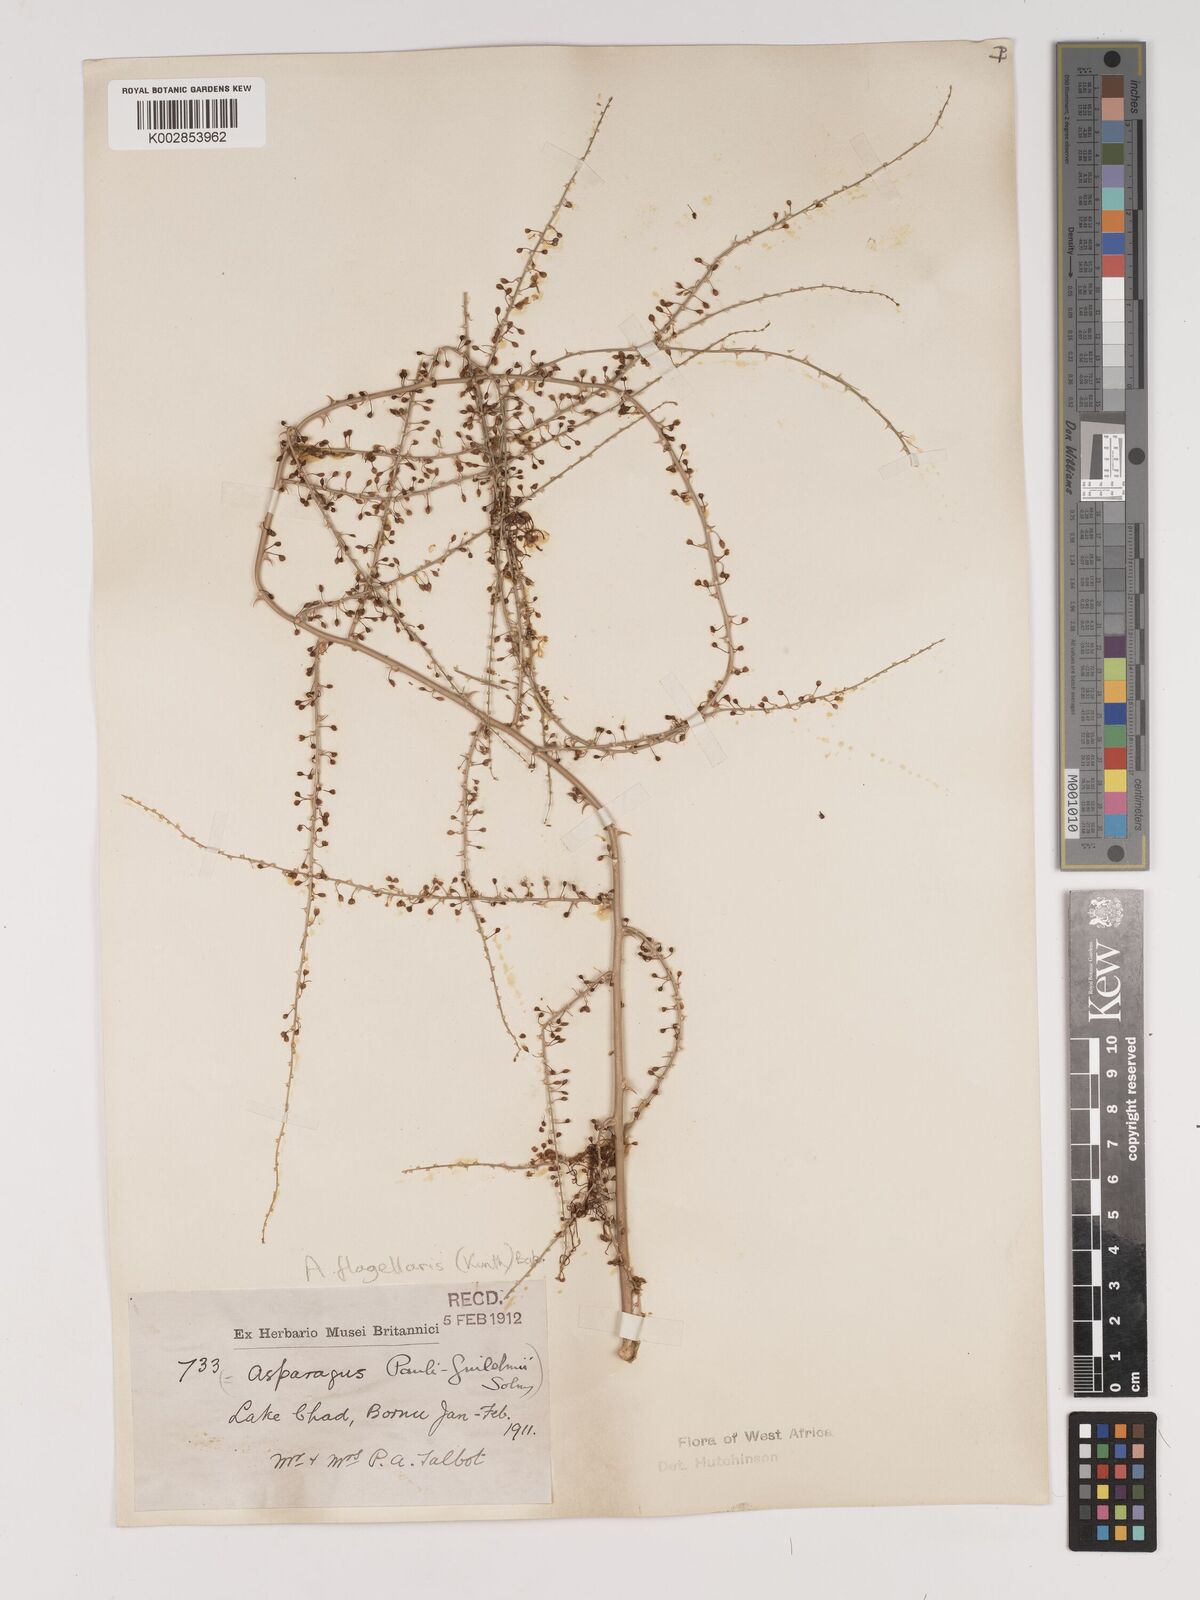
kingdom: Plantae
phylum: Tracheophyta
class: Liliopsida
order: Asparagales
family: Asparagaceae
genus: Asparagus
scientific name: Asparagus flagellaris
